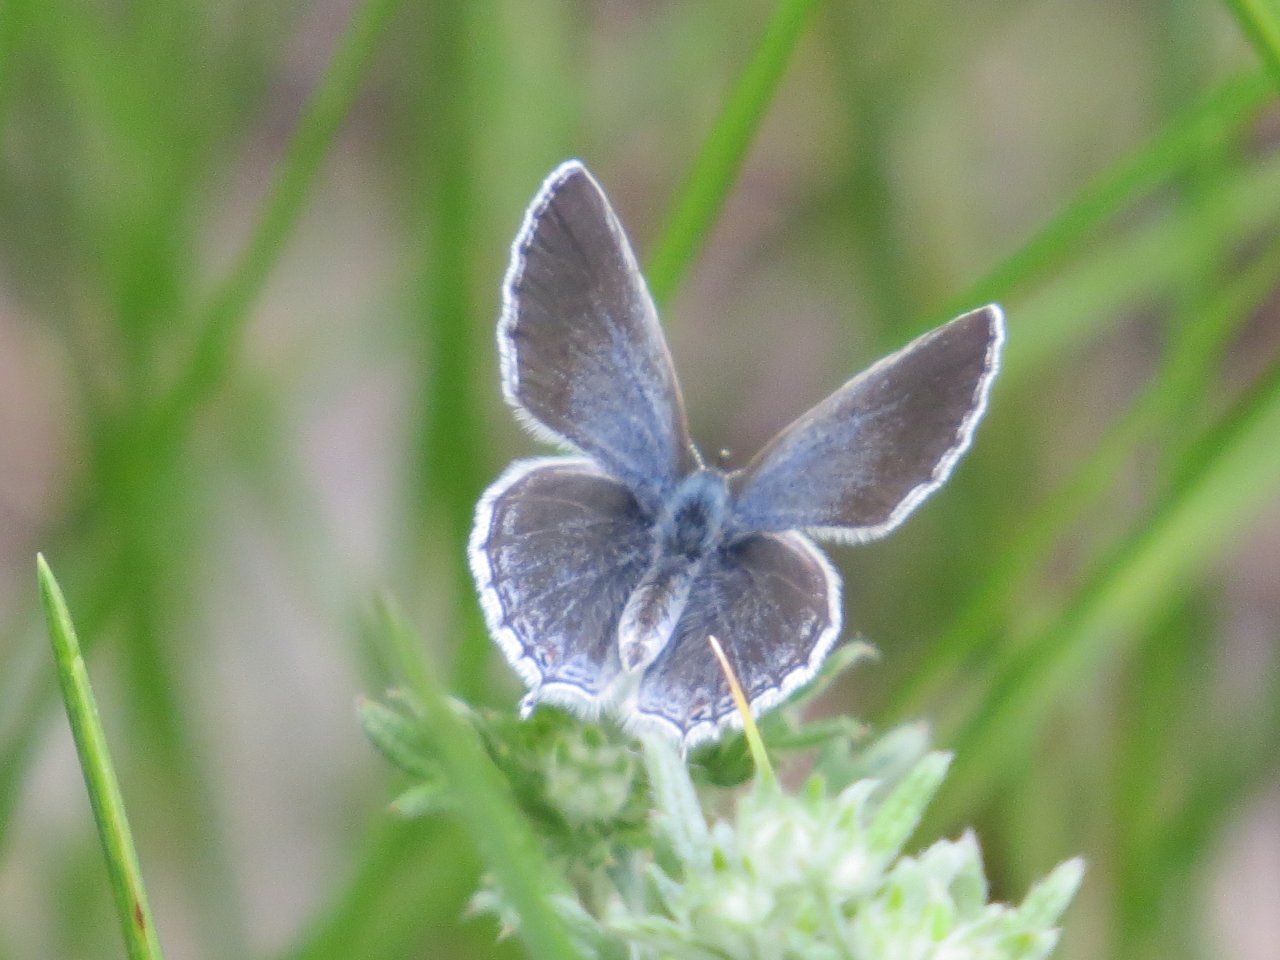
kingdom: Animalia
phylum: Arthropoda
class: Insecta
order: Lepidoptera
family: Lycaenidae
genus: Elkalyce
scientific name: Elkalyce amyntula
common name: Western Tailed-Blue
